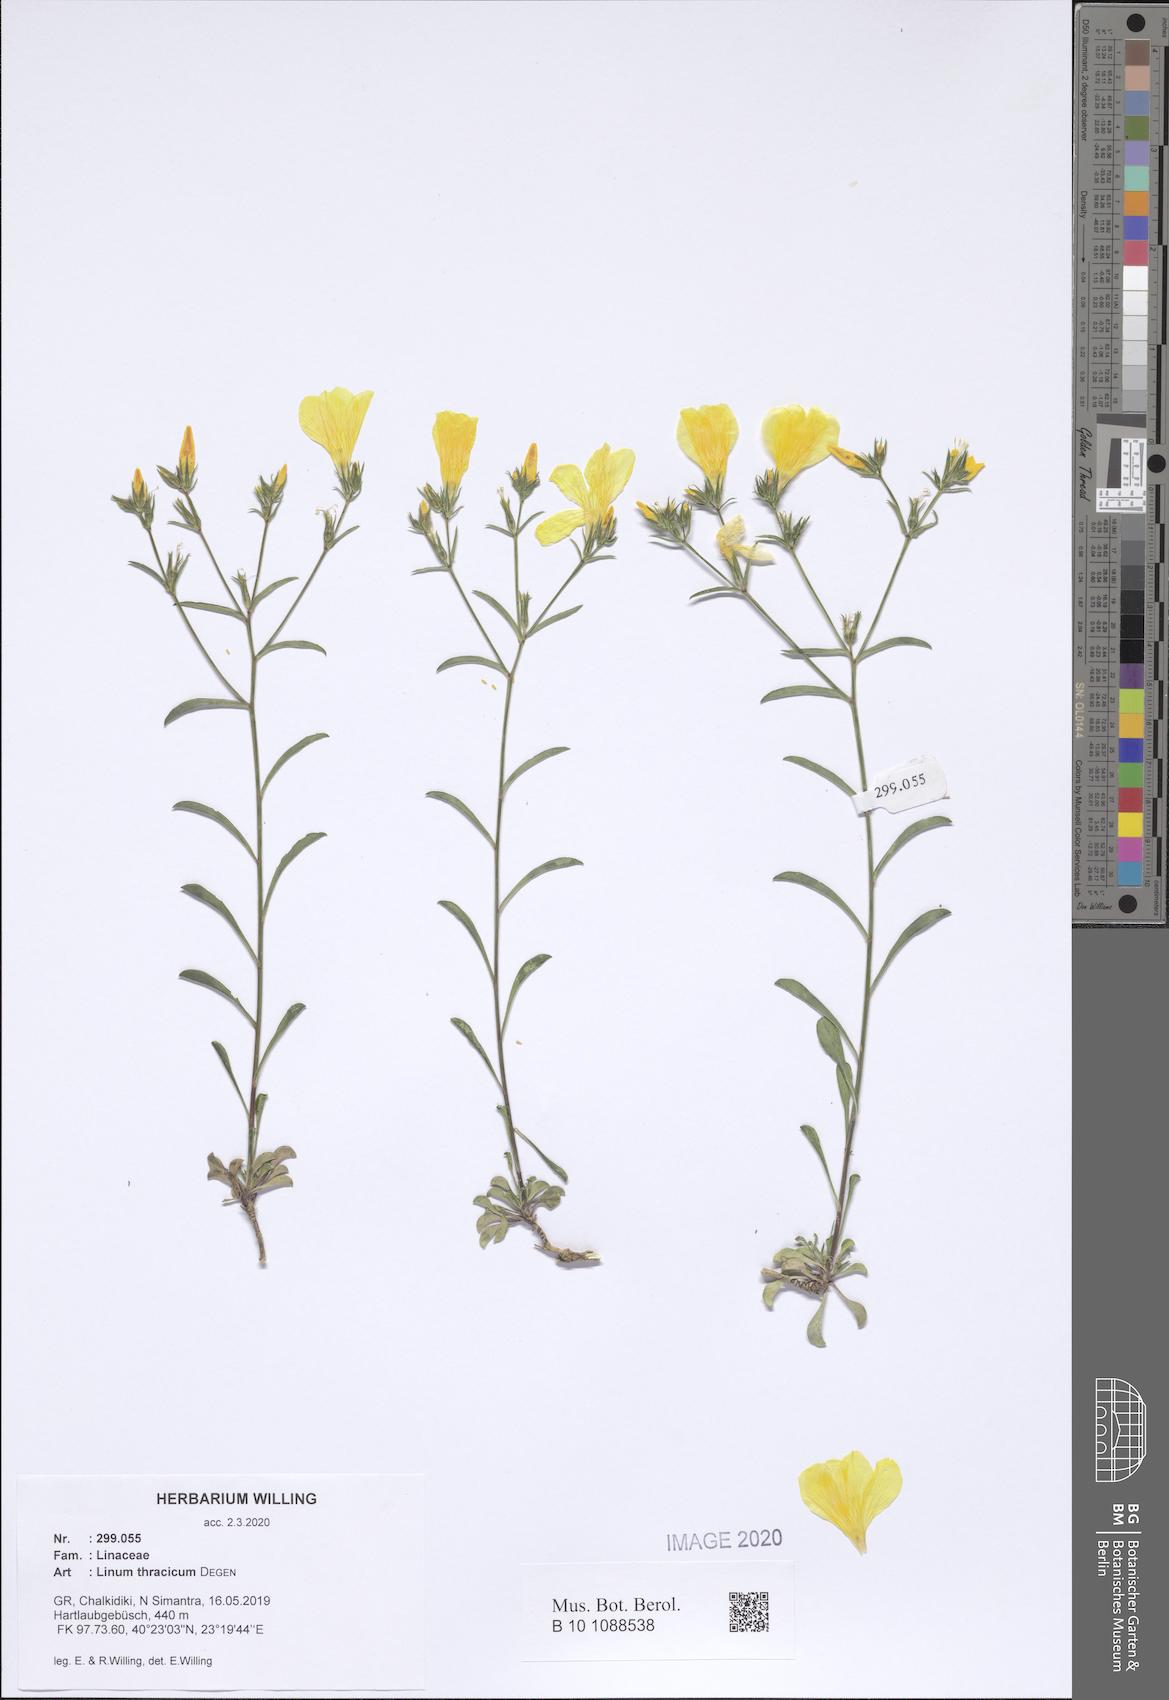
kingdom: Plantae
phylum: Tracheophyta
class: Magnoliopsida
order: Malpighiales
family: Linaceae
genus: Linum
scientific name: Linum thracicum
